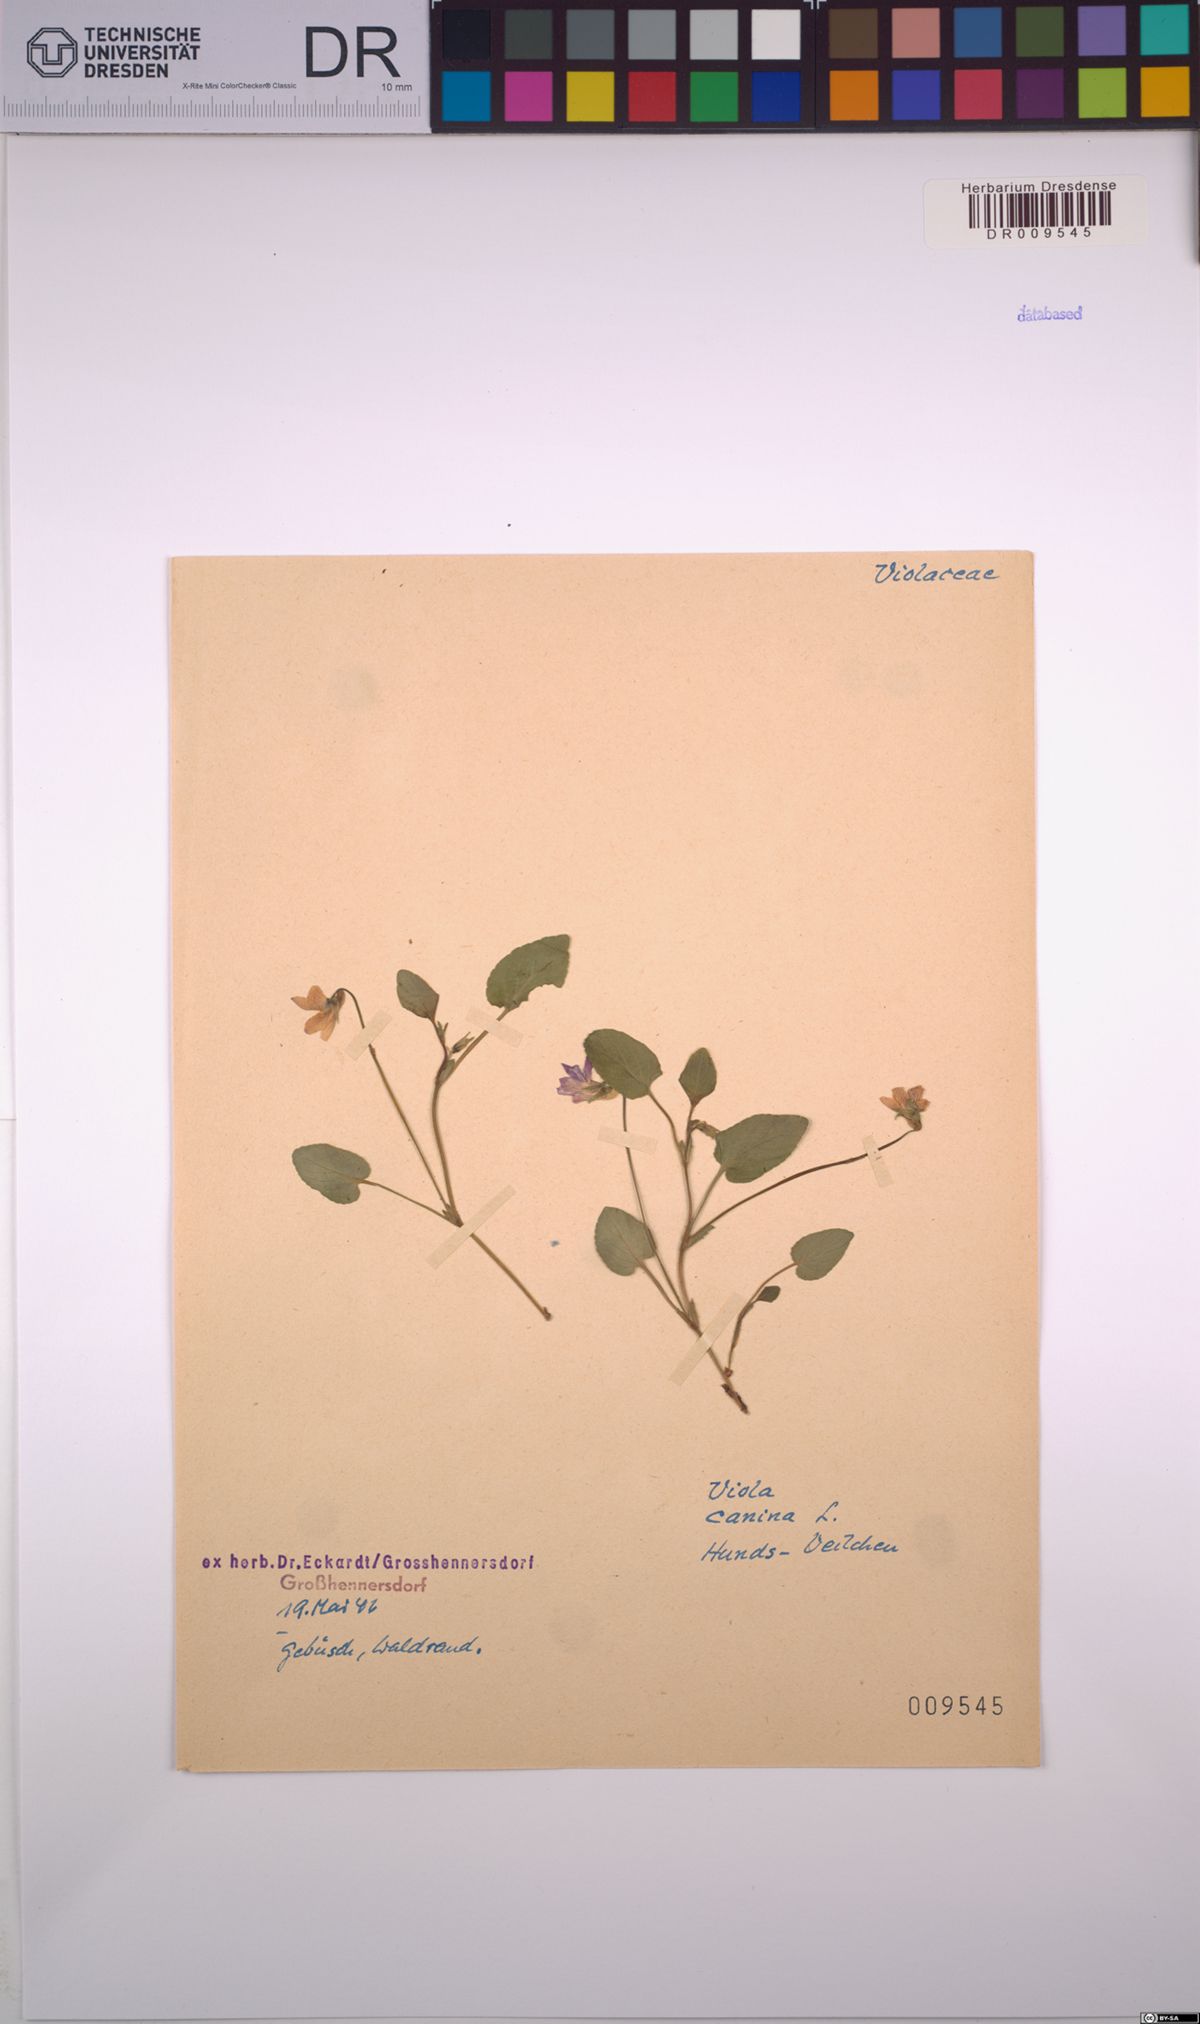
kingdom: Plantae
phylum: Tracheophyta
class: Magnoliopsida
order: Malpighiales
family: Violaceae
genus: Viola
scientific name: Viola canina
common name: Heath dog-violet
